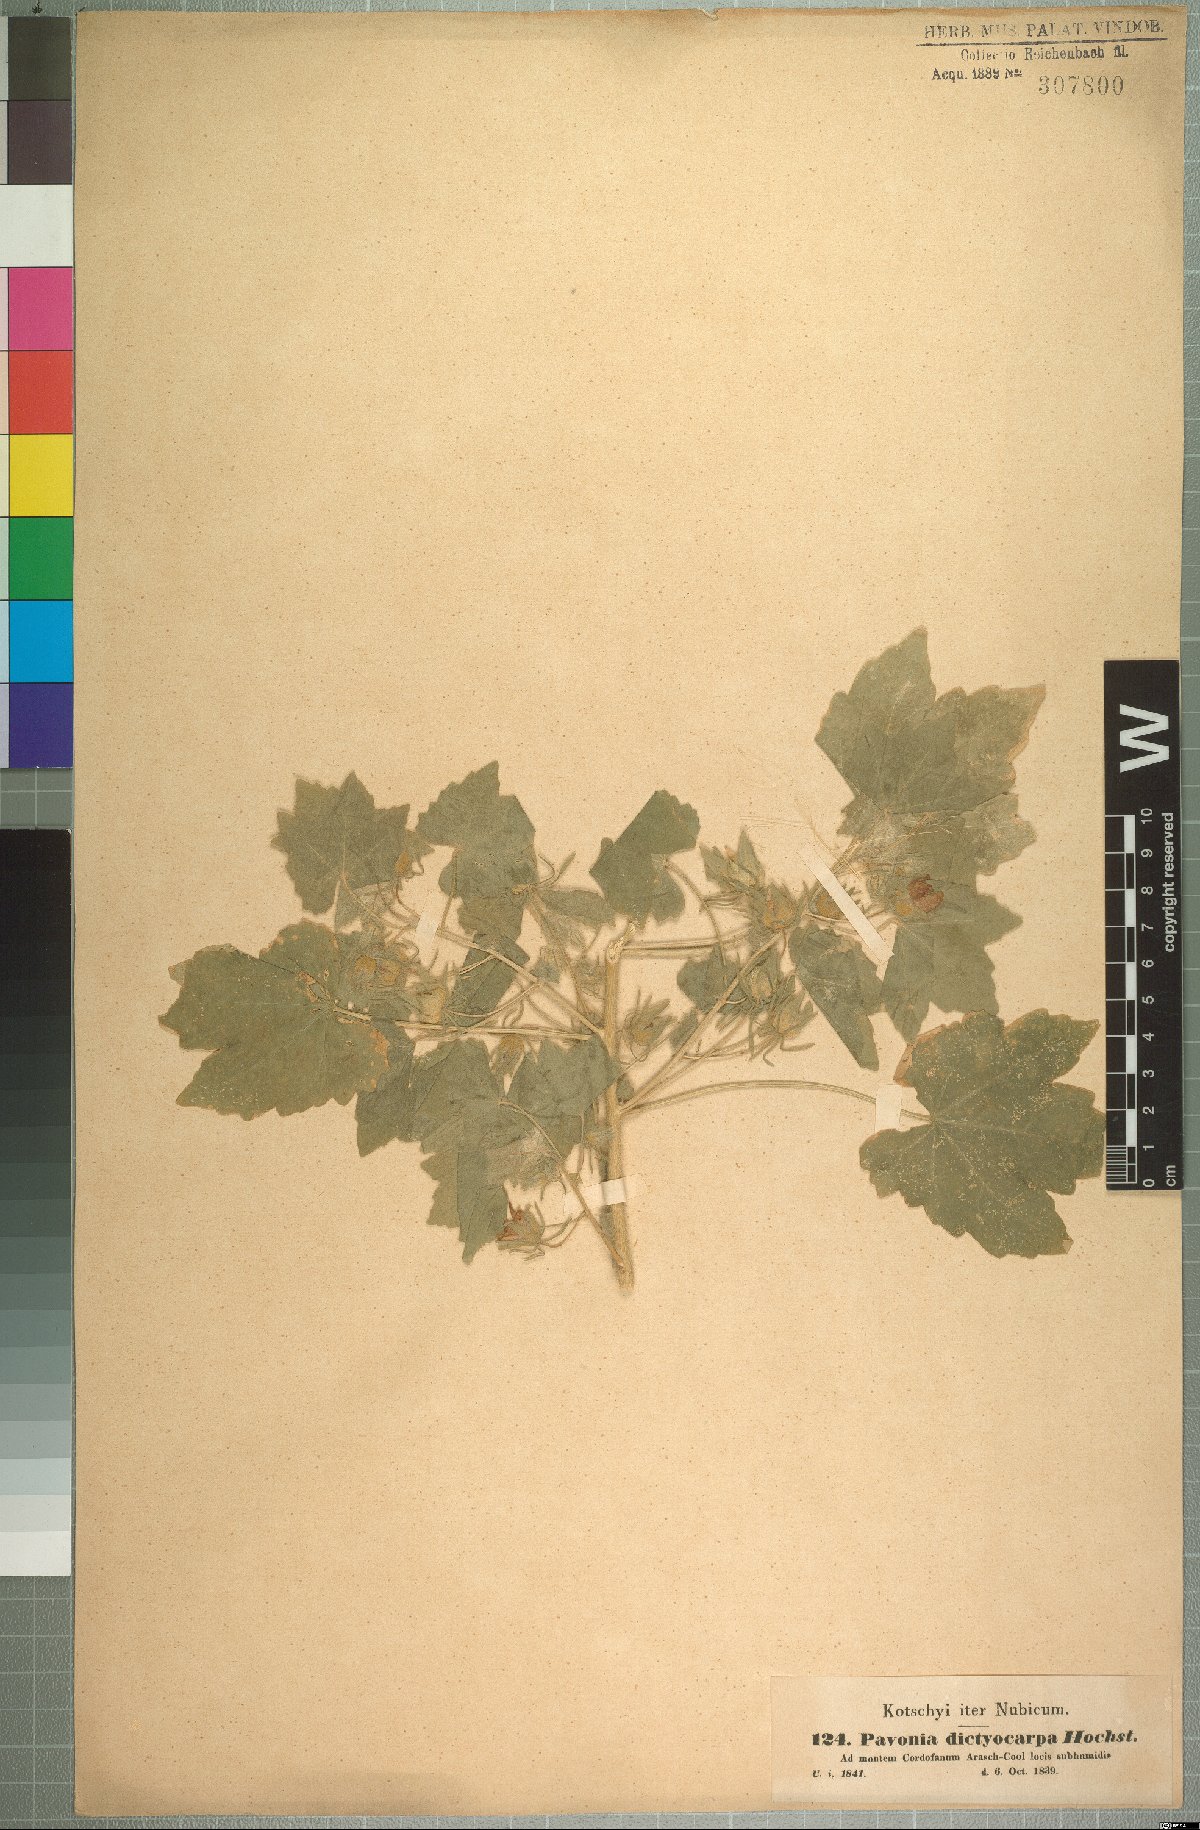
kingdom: Plantae
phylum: Tracheophyta
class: Magnoliopsida
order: Malvales
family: Malvaceae
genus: Roifia
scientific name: Roifia dictyocarpa
